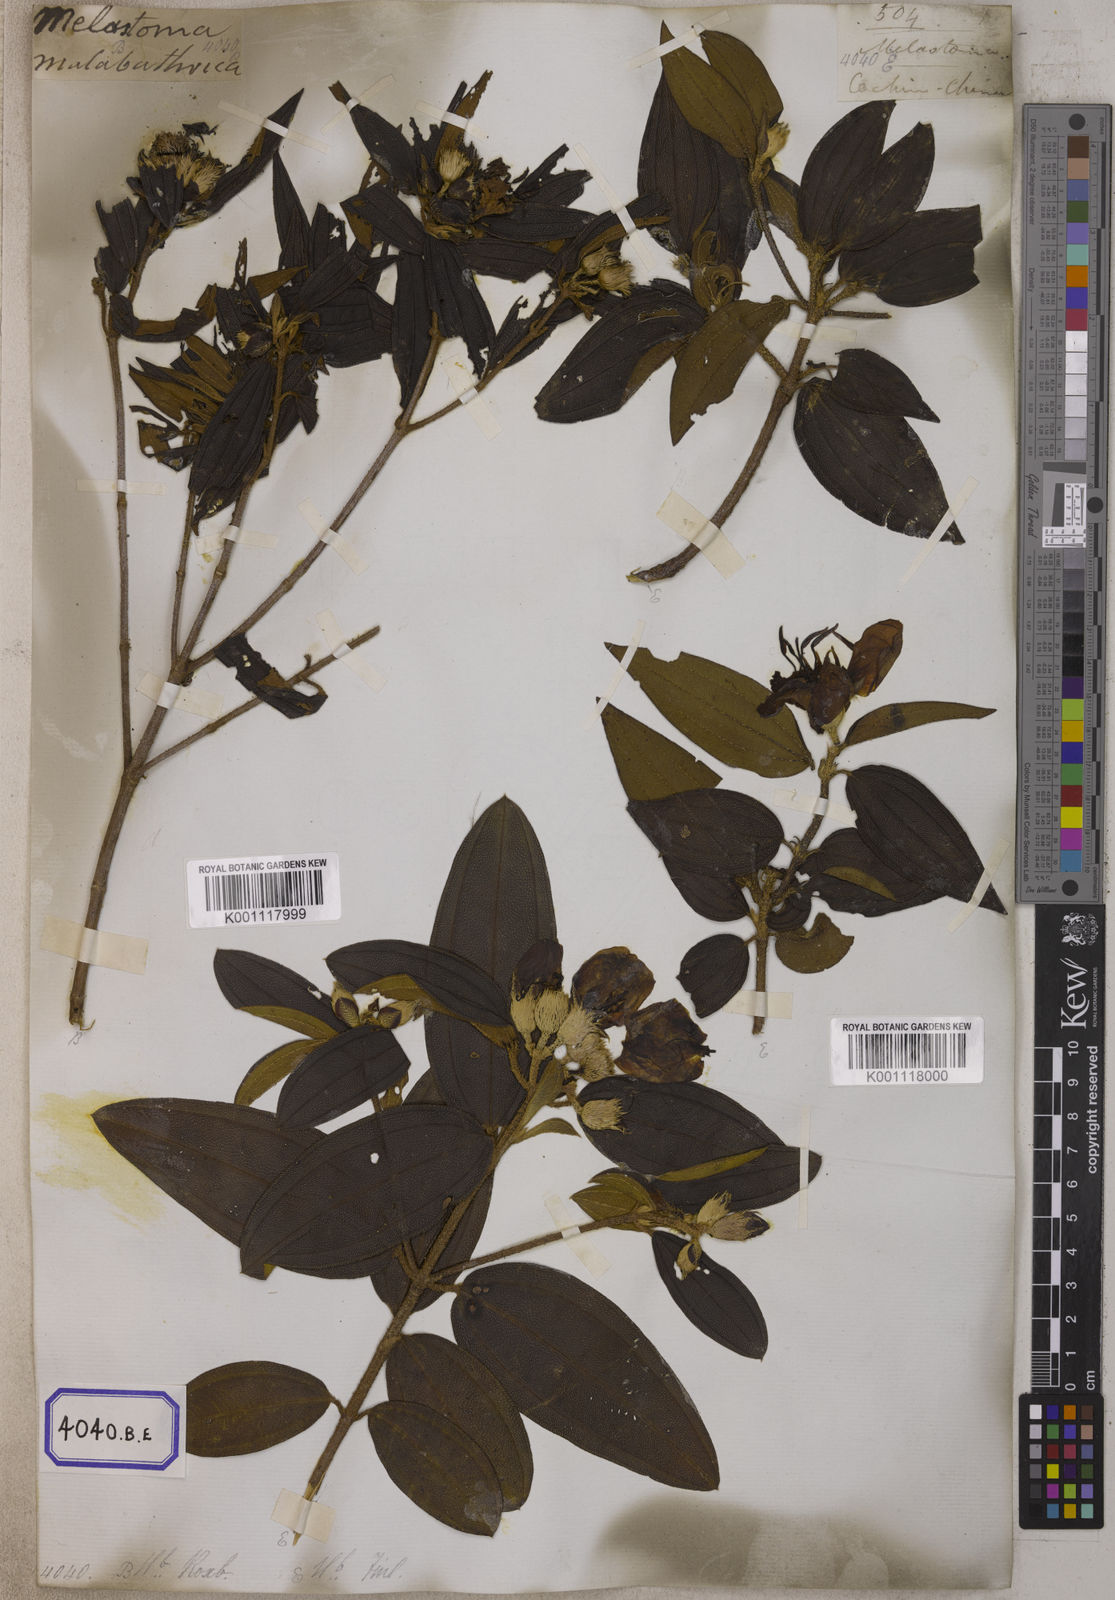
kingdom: Plantae
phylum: Tracheophyta
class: Magnoliopsida
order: Myrtales
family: Melastomataceae
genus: Melastoma
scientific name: Melastoma malabathricum
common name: Indian-rhododendron
